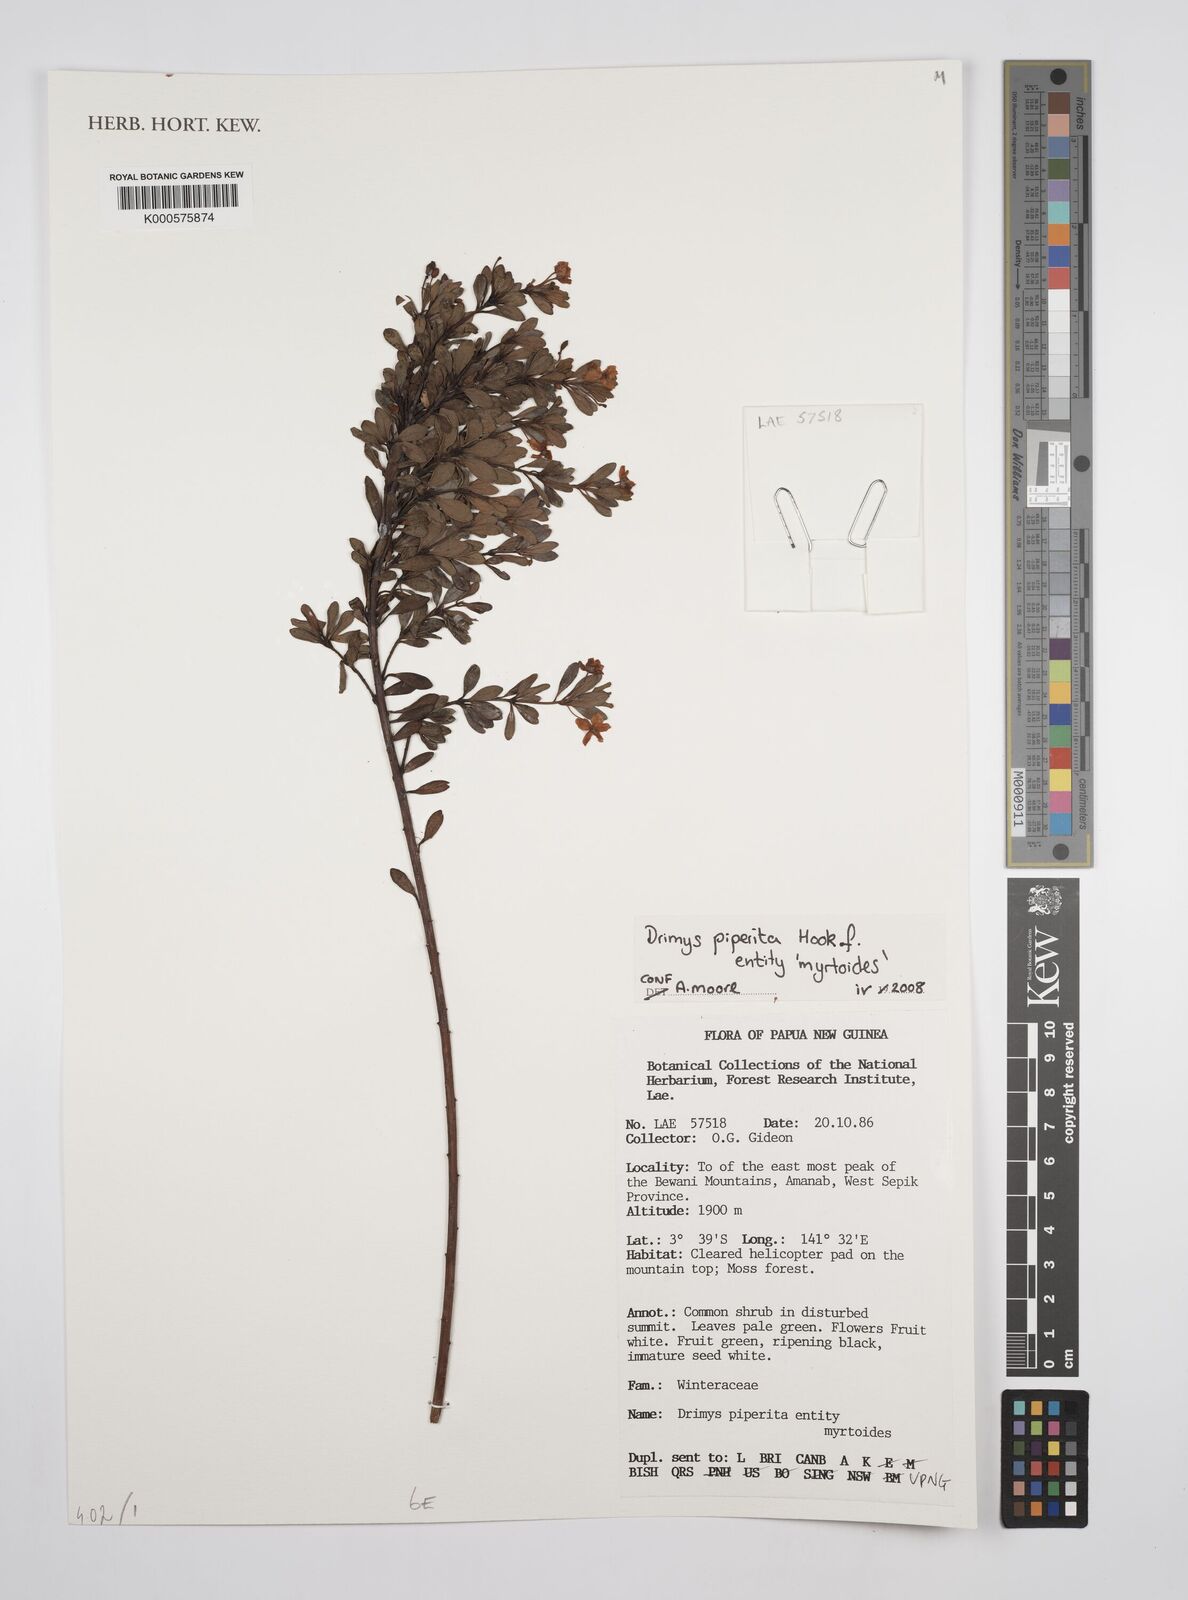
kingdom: Plantae
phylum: Tracheophyta
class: Magnoliopsida
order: Canellales
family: Winteraceae
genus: Drimys
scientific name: Drimys piperita
